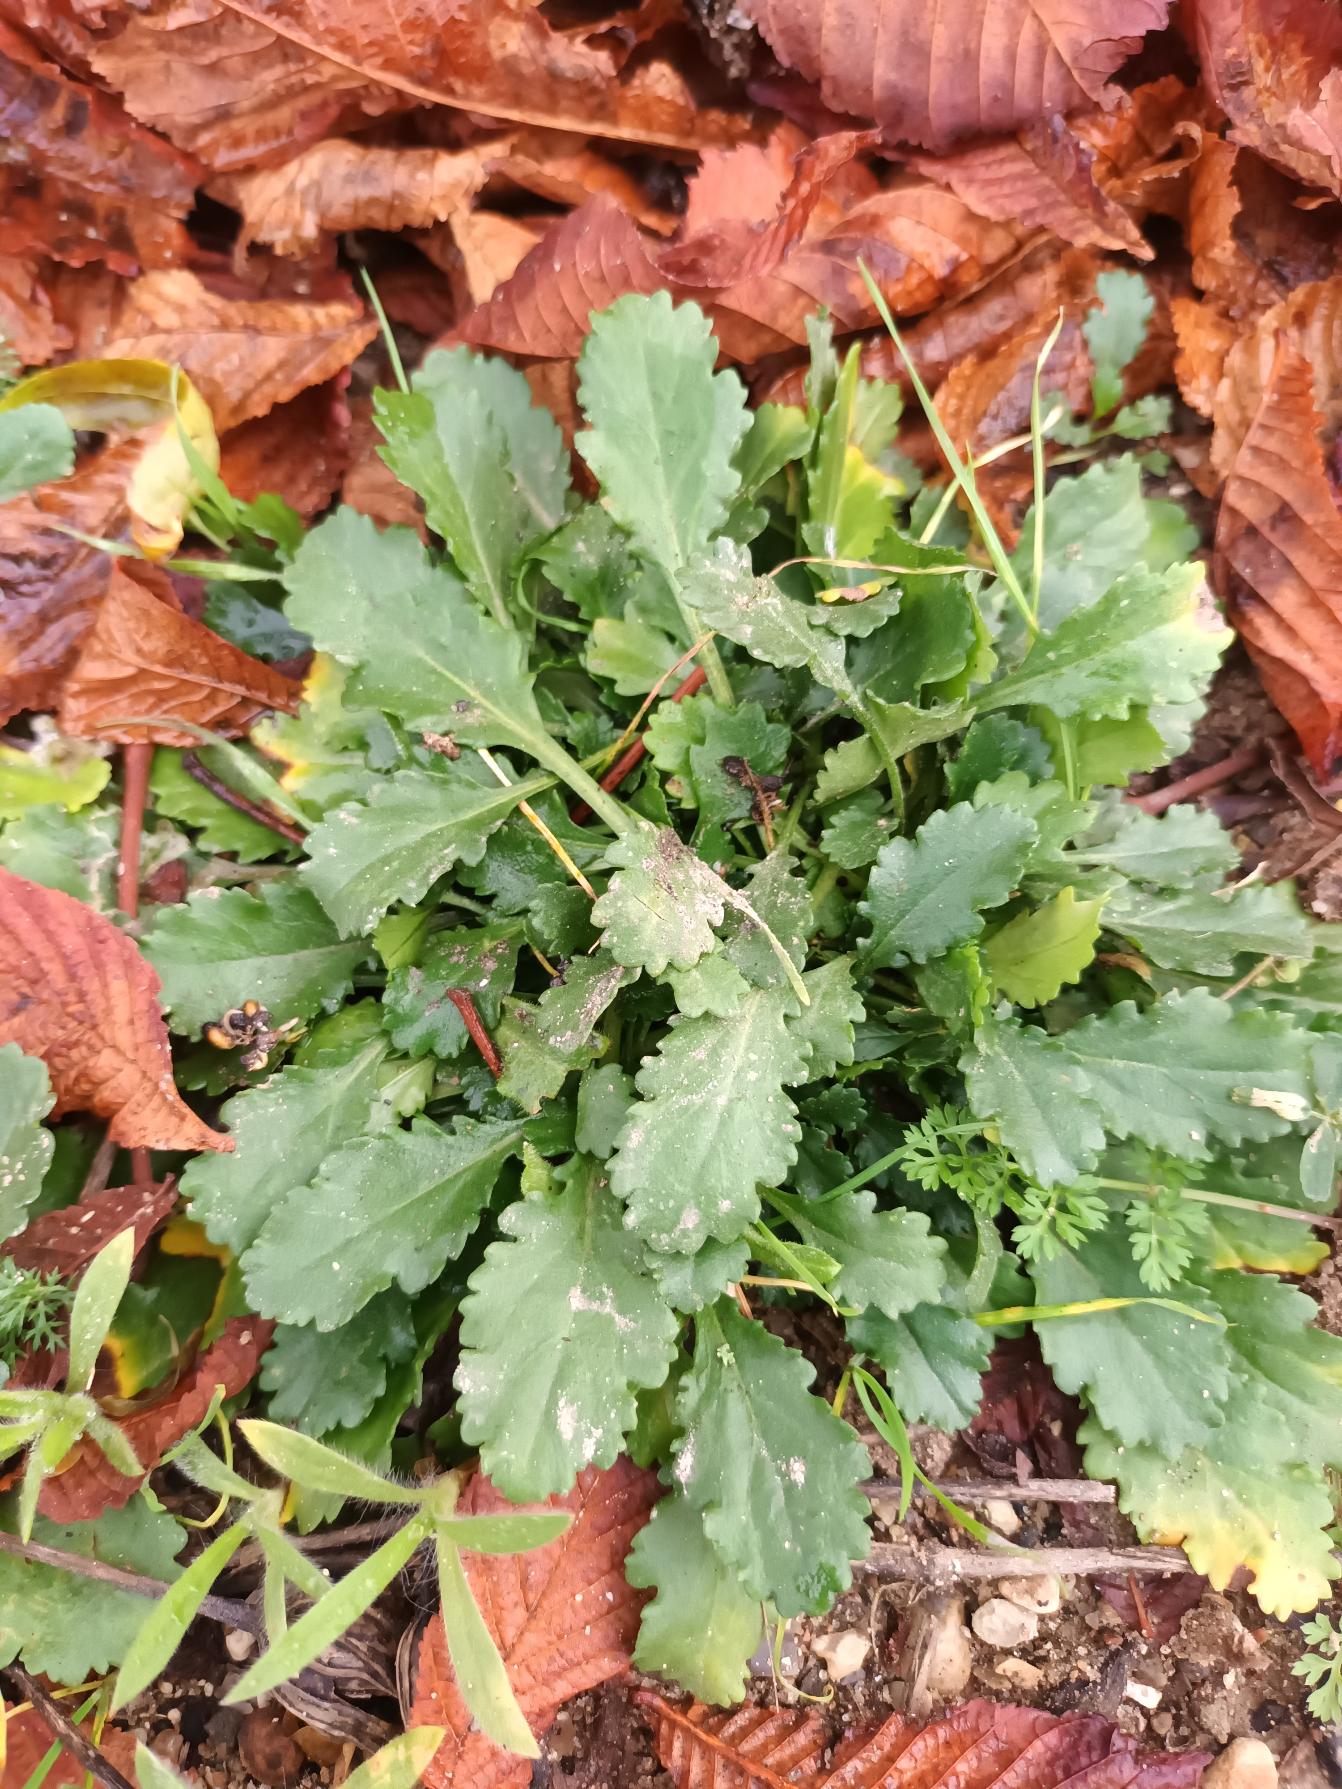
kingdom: Plantae
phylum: Tracheophyta
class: Magnoliopsida
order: Asterales
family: Asteraceae
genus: Leucanthemum
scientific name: Leucanthemum vulgare
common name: Hvid okseøje
